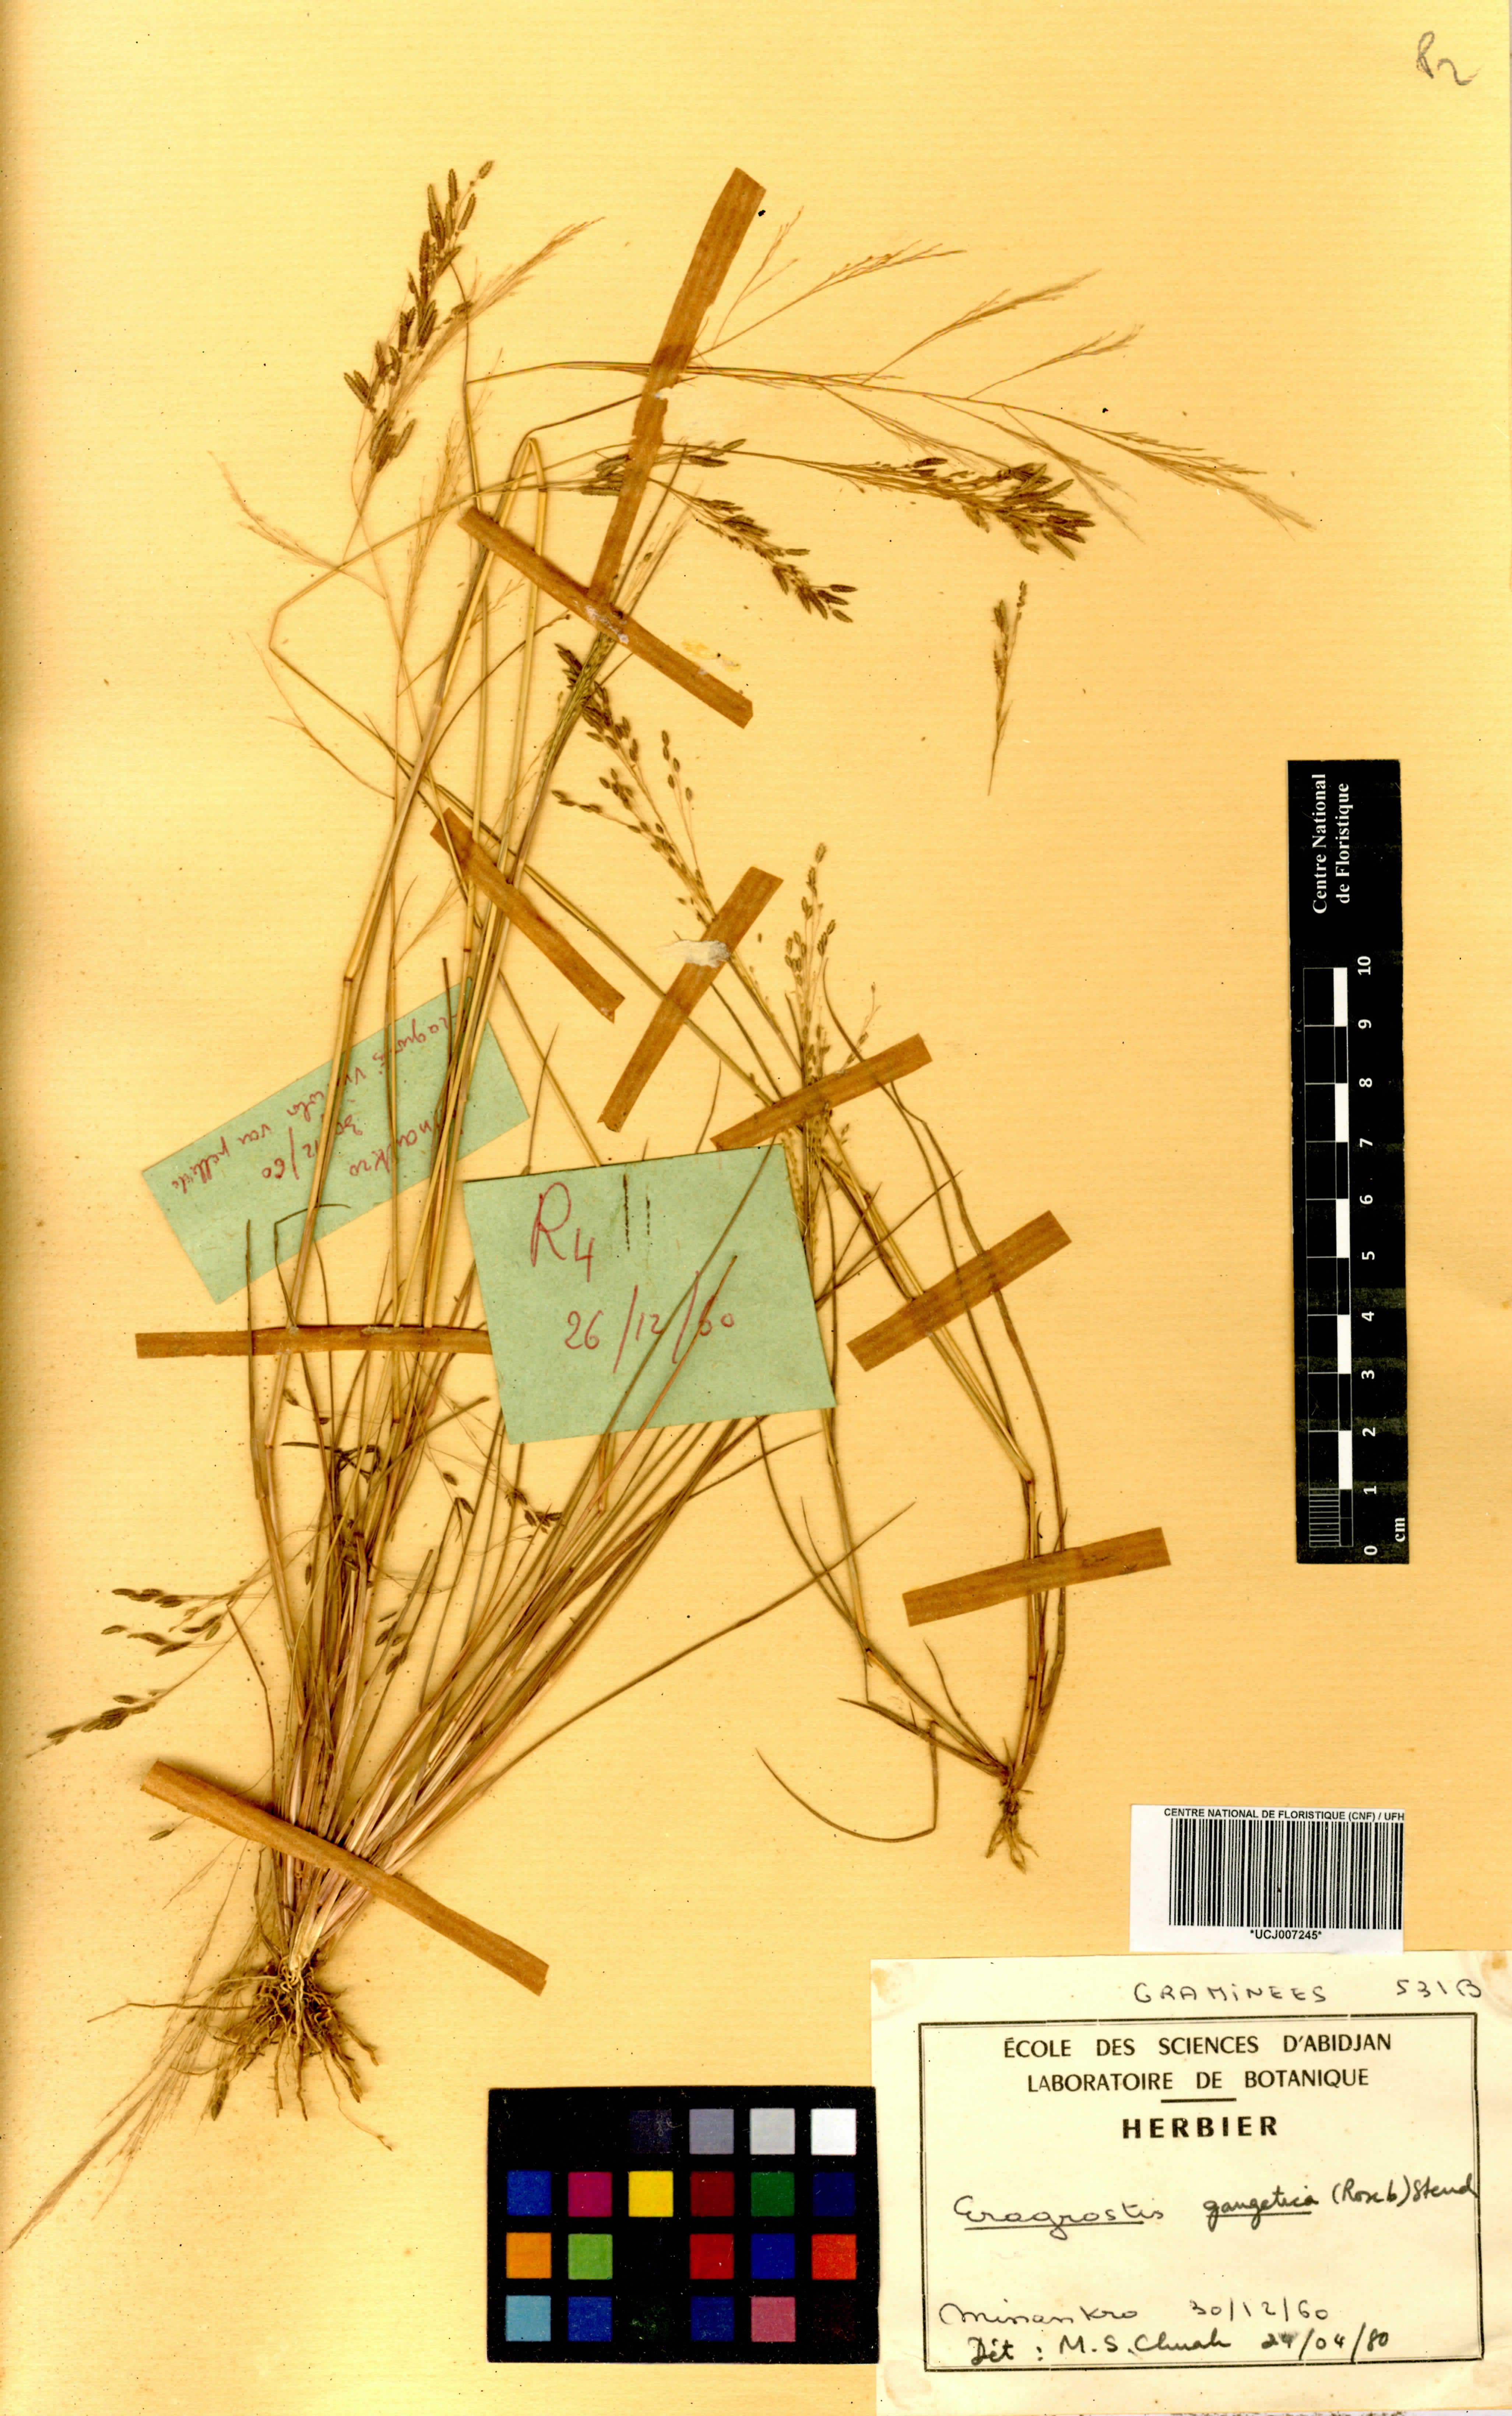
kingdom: Plantae
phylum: Tracheophyta
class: Liliopsida
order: Poales
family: Poaceae
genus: Eragrostis
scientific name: Eragrostis gangetica
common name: Slimflower lovegrass
